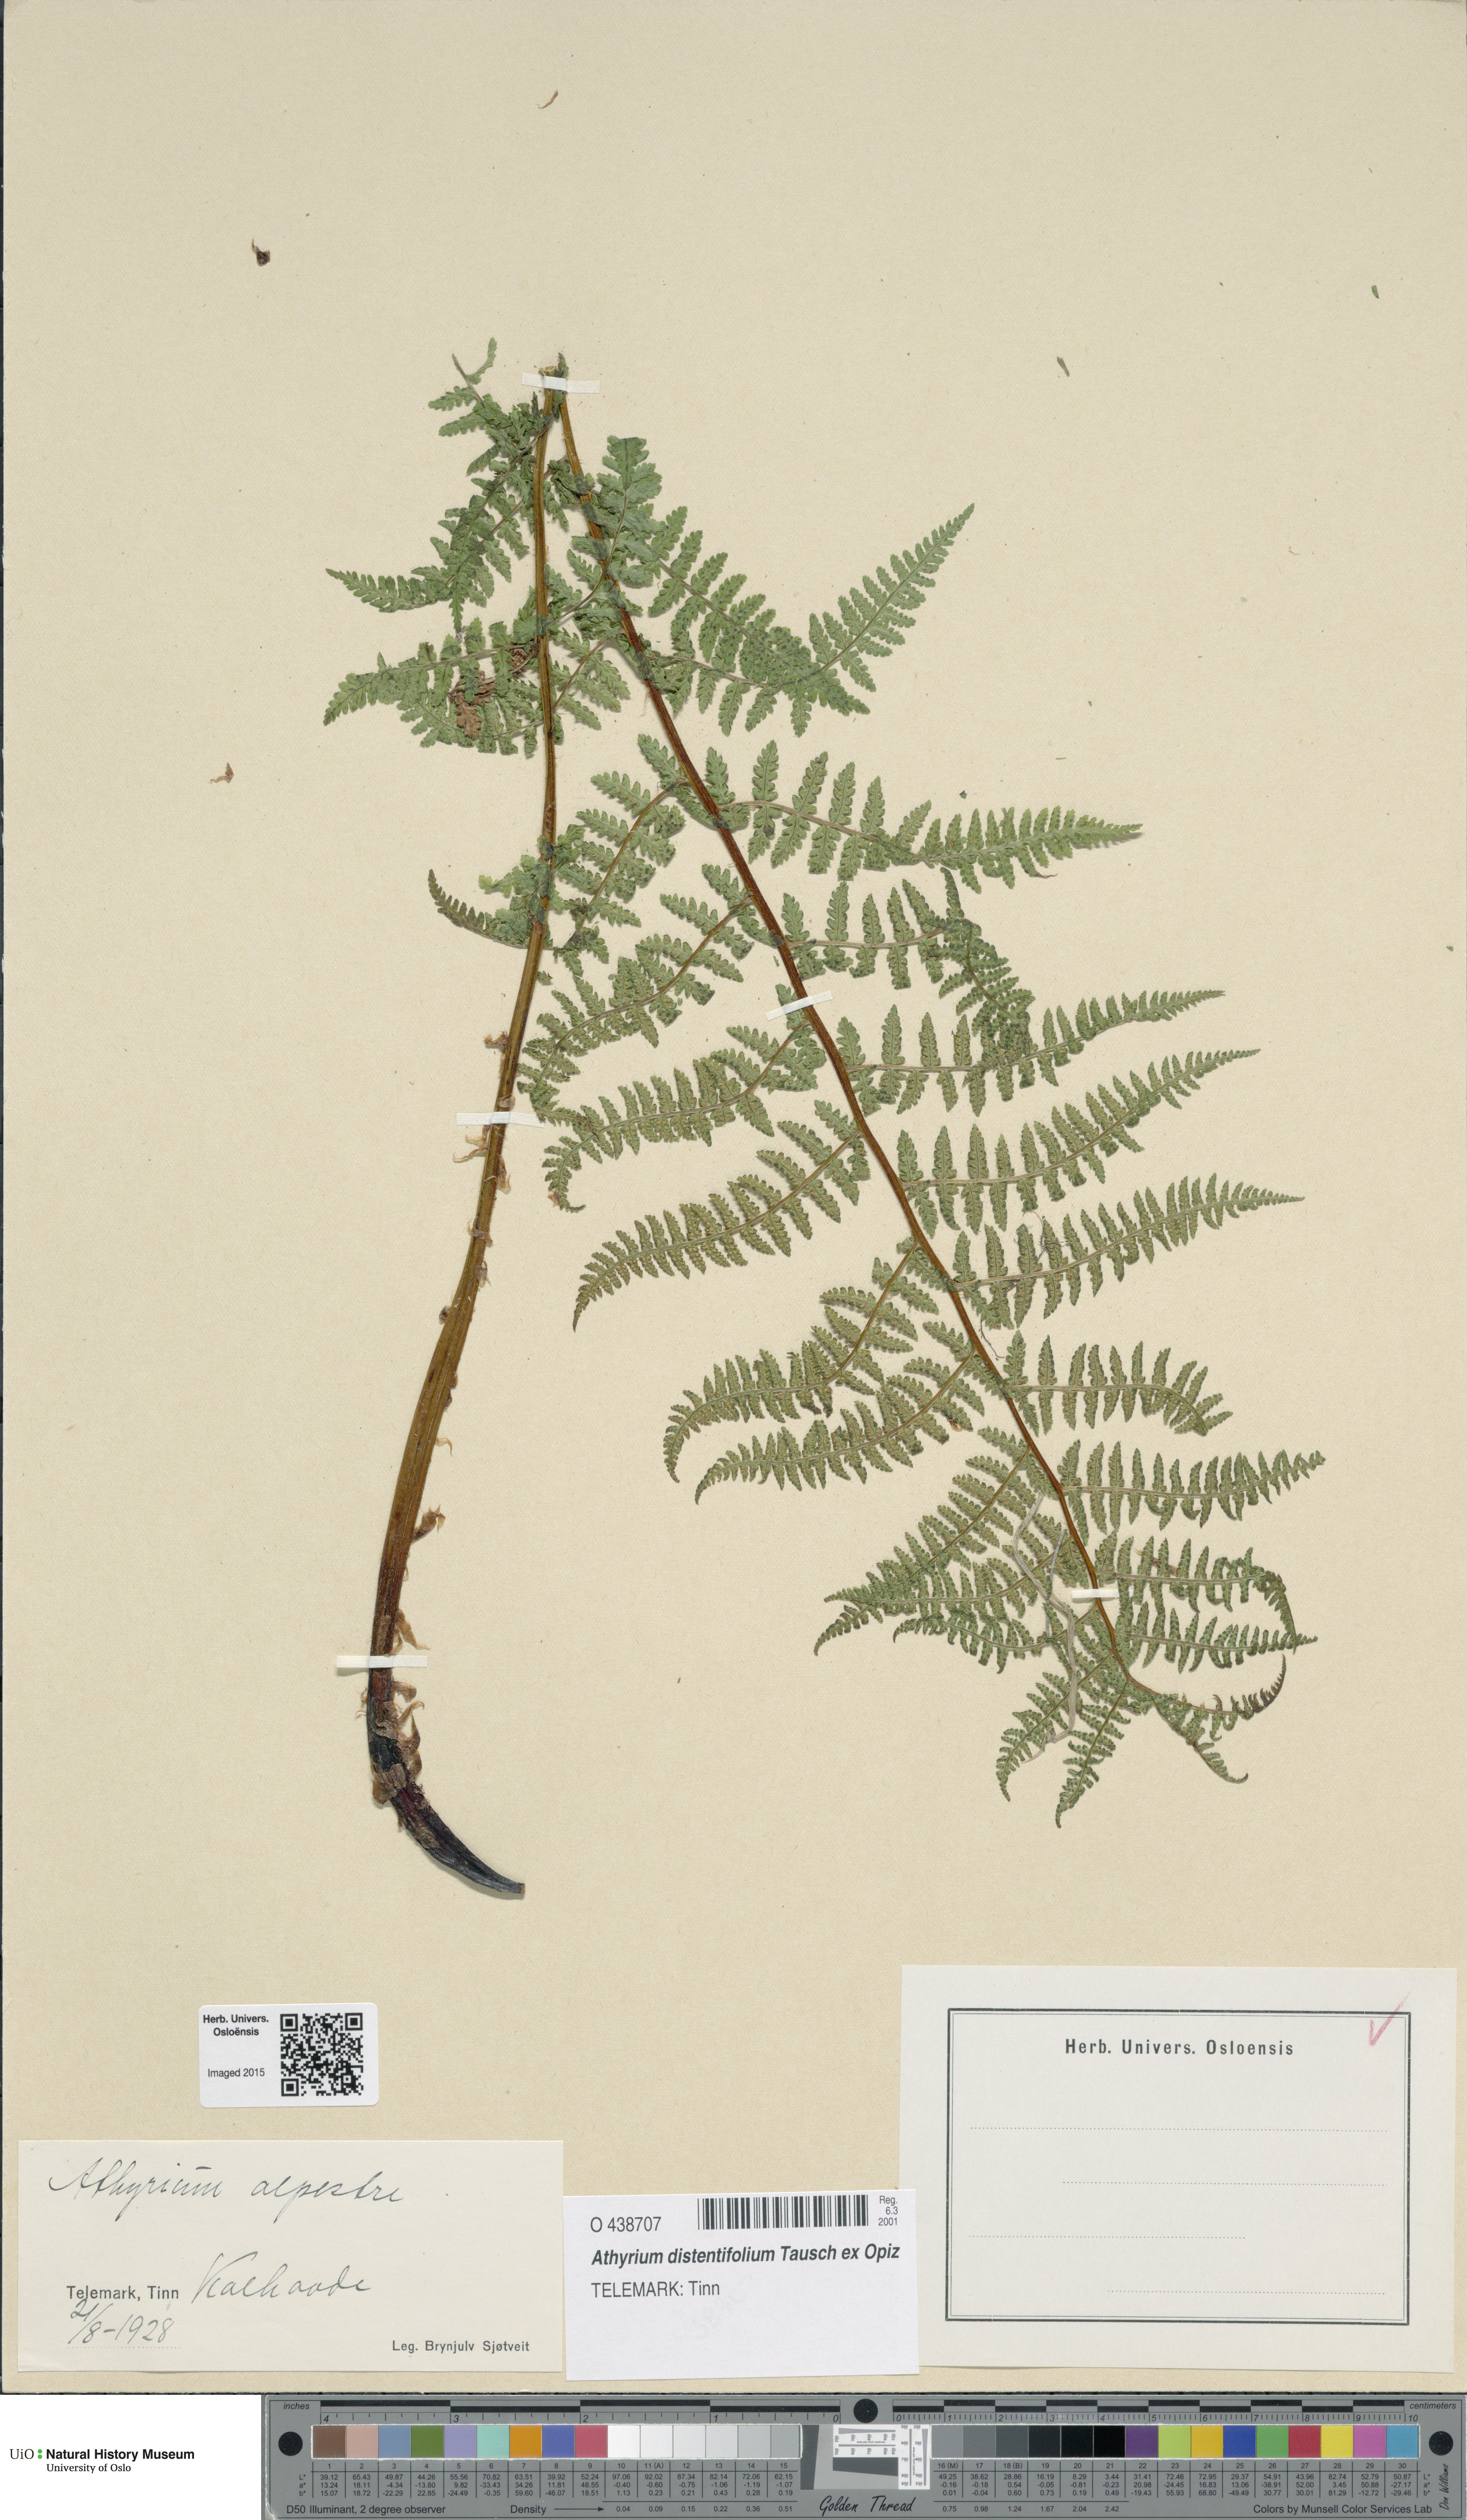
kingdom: Plantae
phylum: Tracheophyta
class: Polypodiopsida
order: Polypodiales
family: Athyriaceae
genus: Pseudathyrium
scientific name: Pseudathyrium alpestre
